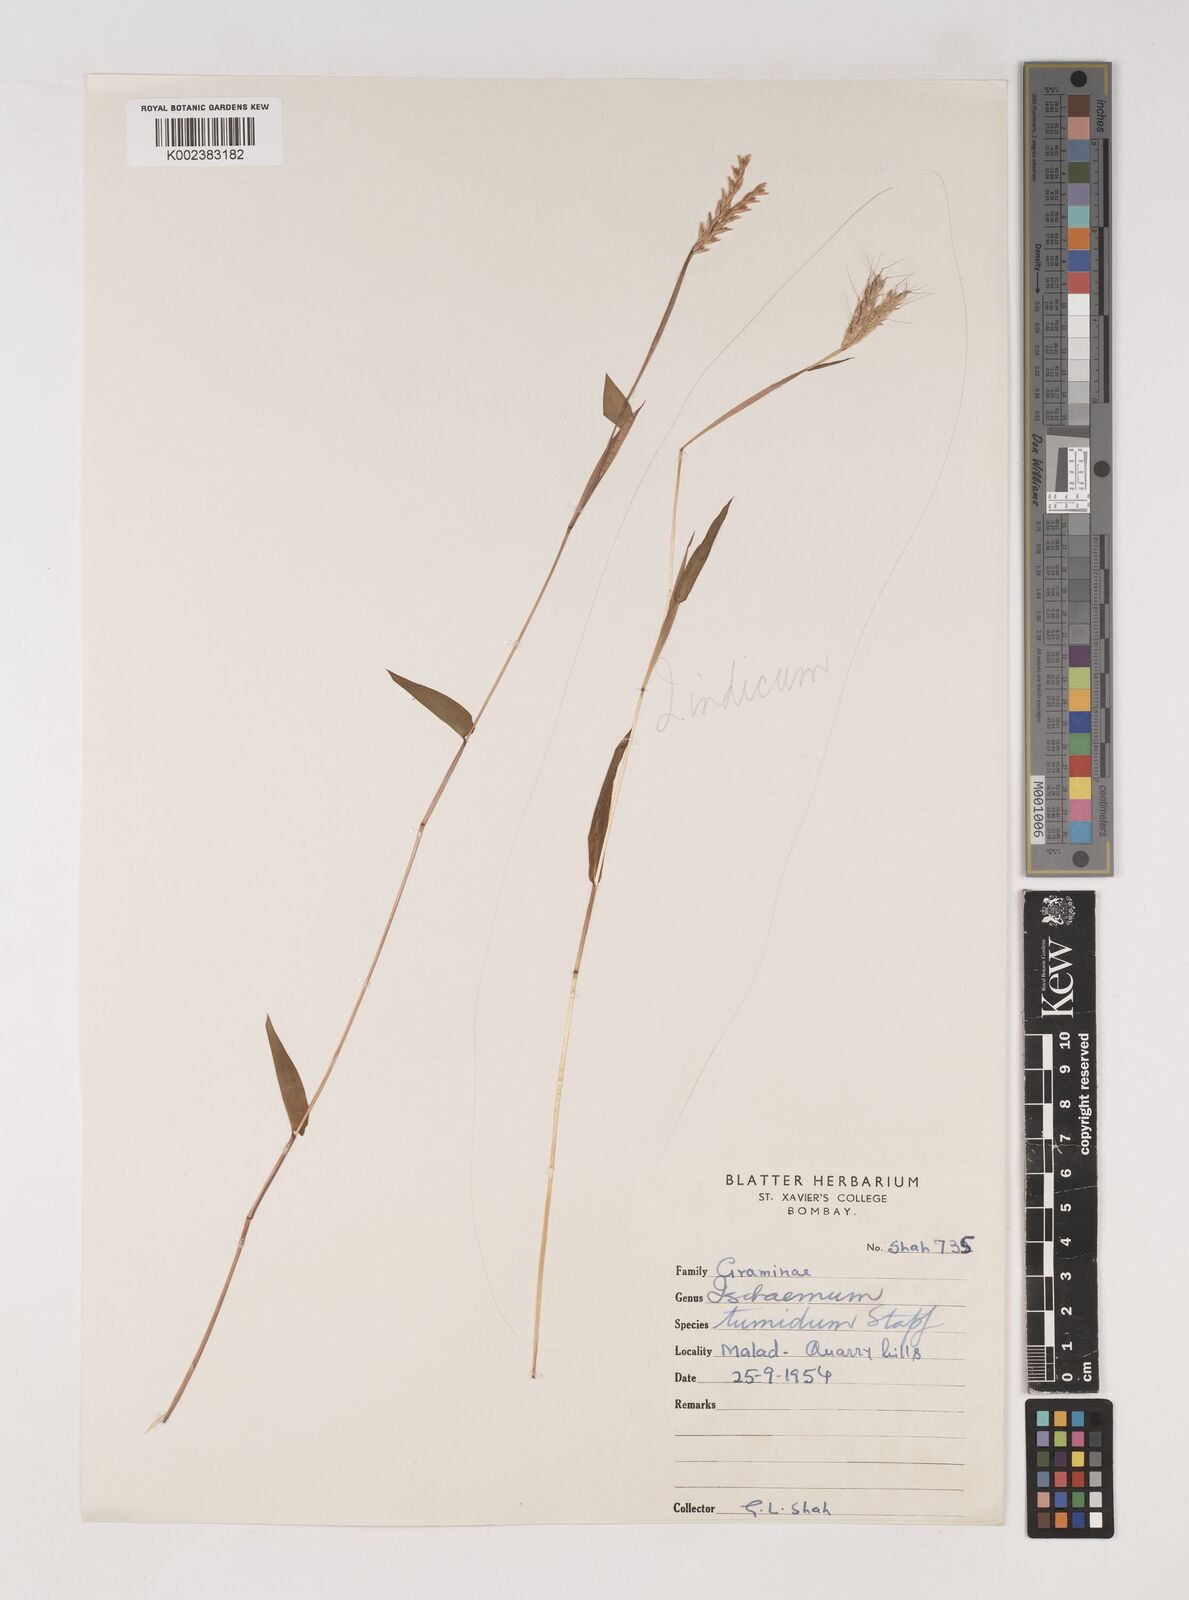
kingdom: Plantae
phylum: Tracheophyta
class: Liliopsida
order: Poales
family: Poaceae
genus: Ischaemum
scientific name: Ischaemum tumidum
